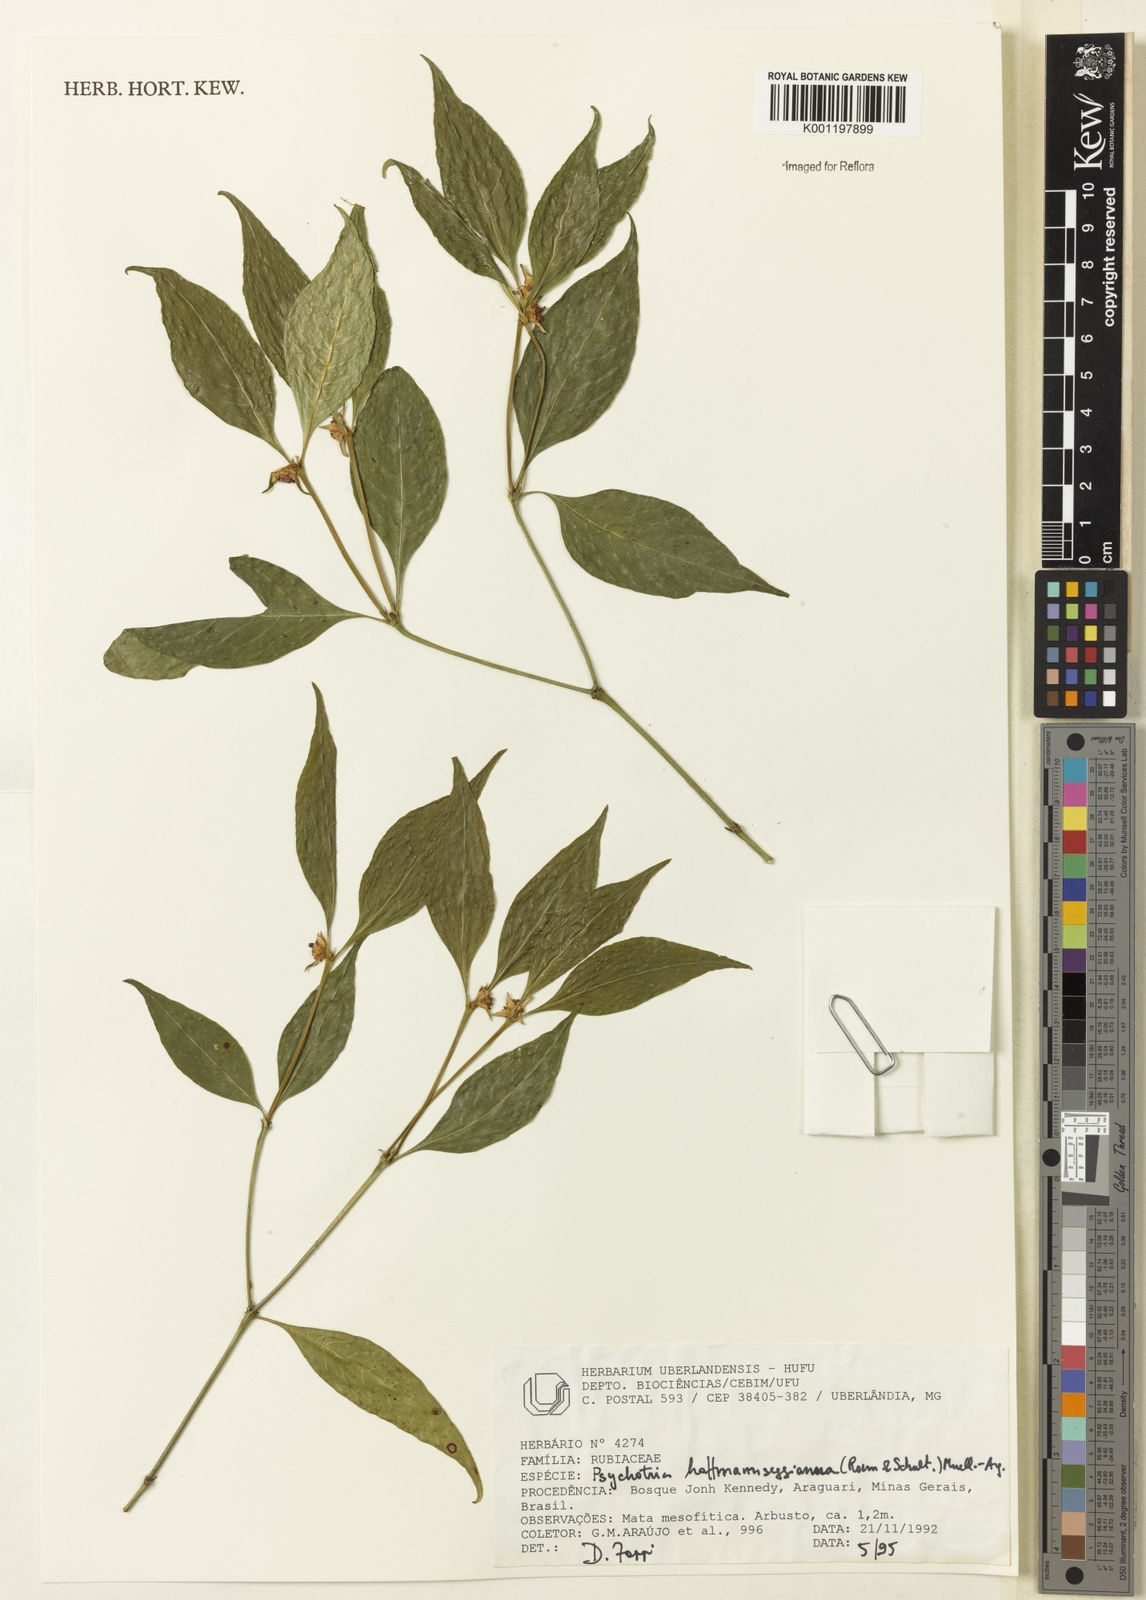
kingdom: Plantae
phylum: Tracheophyta
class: Magnoliopsida
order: Gentianales
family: Rubiaceae
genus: Psychotria
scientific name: Psychotria
